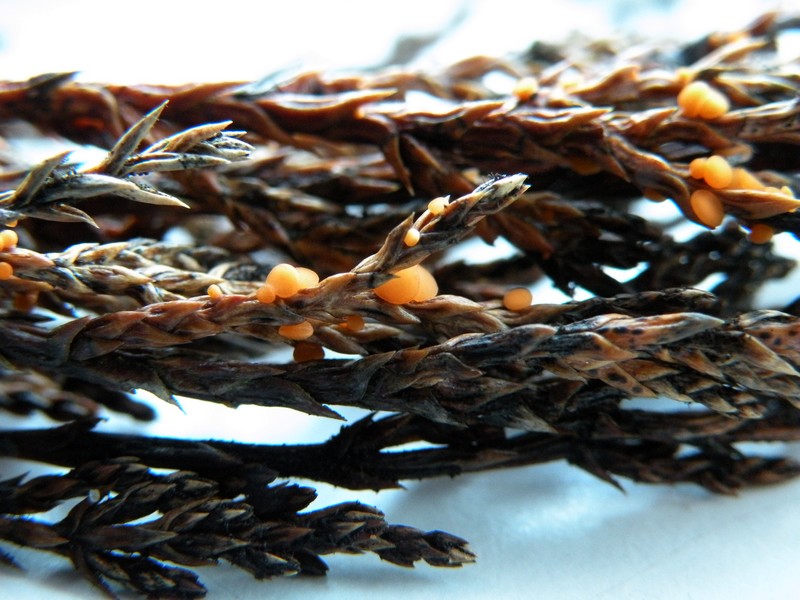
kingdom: Fungi
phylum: Ascomycota
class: Pezizomycetes
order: Pezizales
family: Sarcoscyphaceae
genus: Pithya
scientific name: Pithya cupressina
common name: lille dukatbæger
